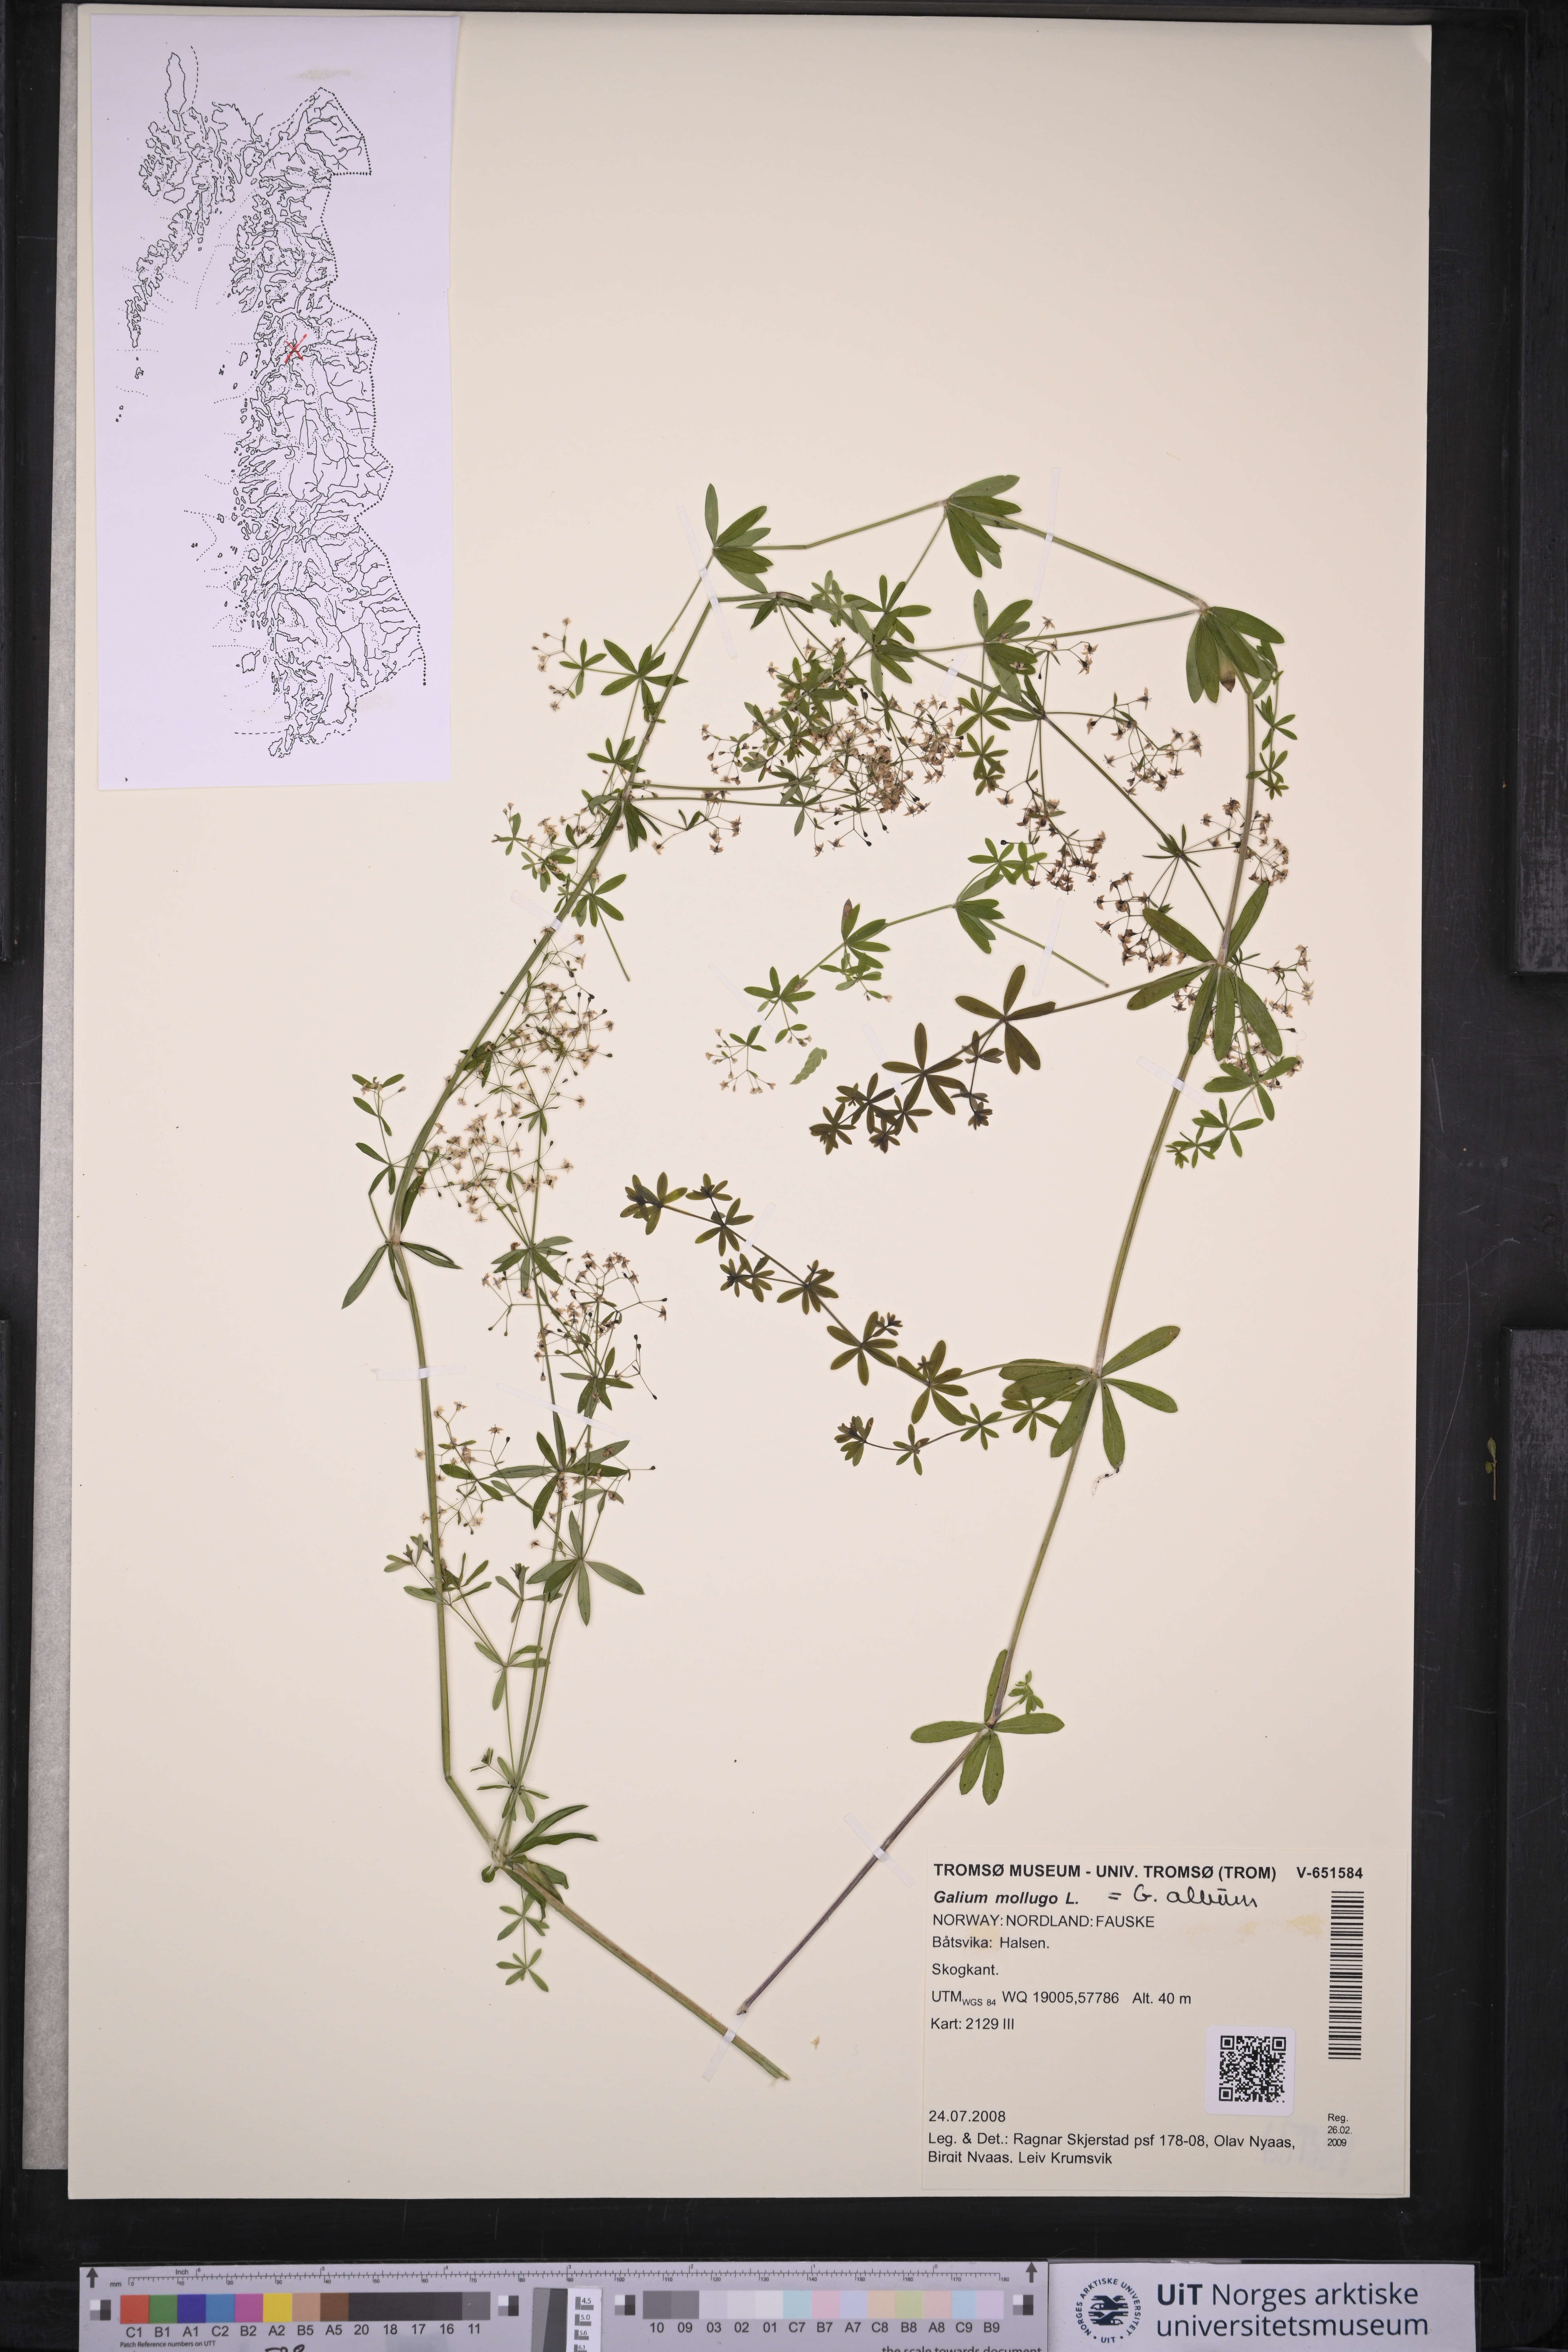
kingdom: Plantae
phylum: Tracheophyta
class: Magnoliopsida
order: Gentianales
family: Rubiaceae
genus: Galium
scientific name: Galium mollugo
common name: Hedge bedstraw
